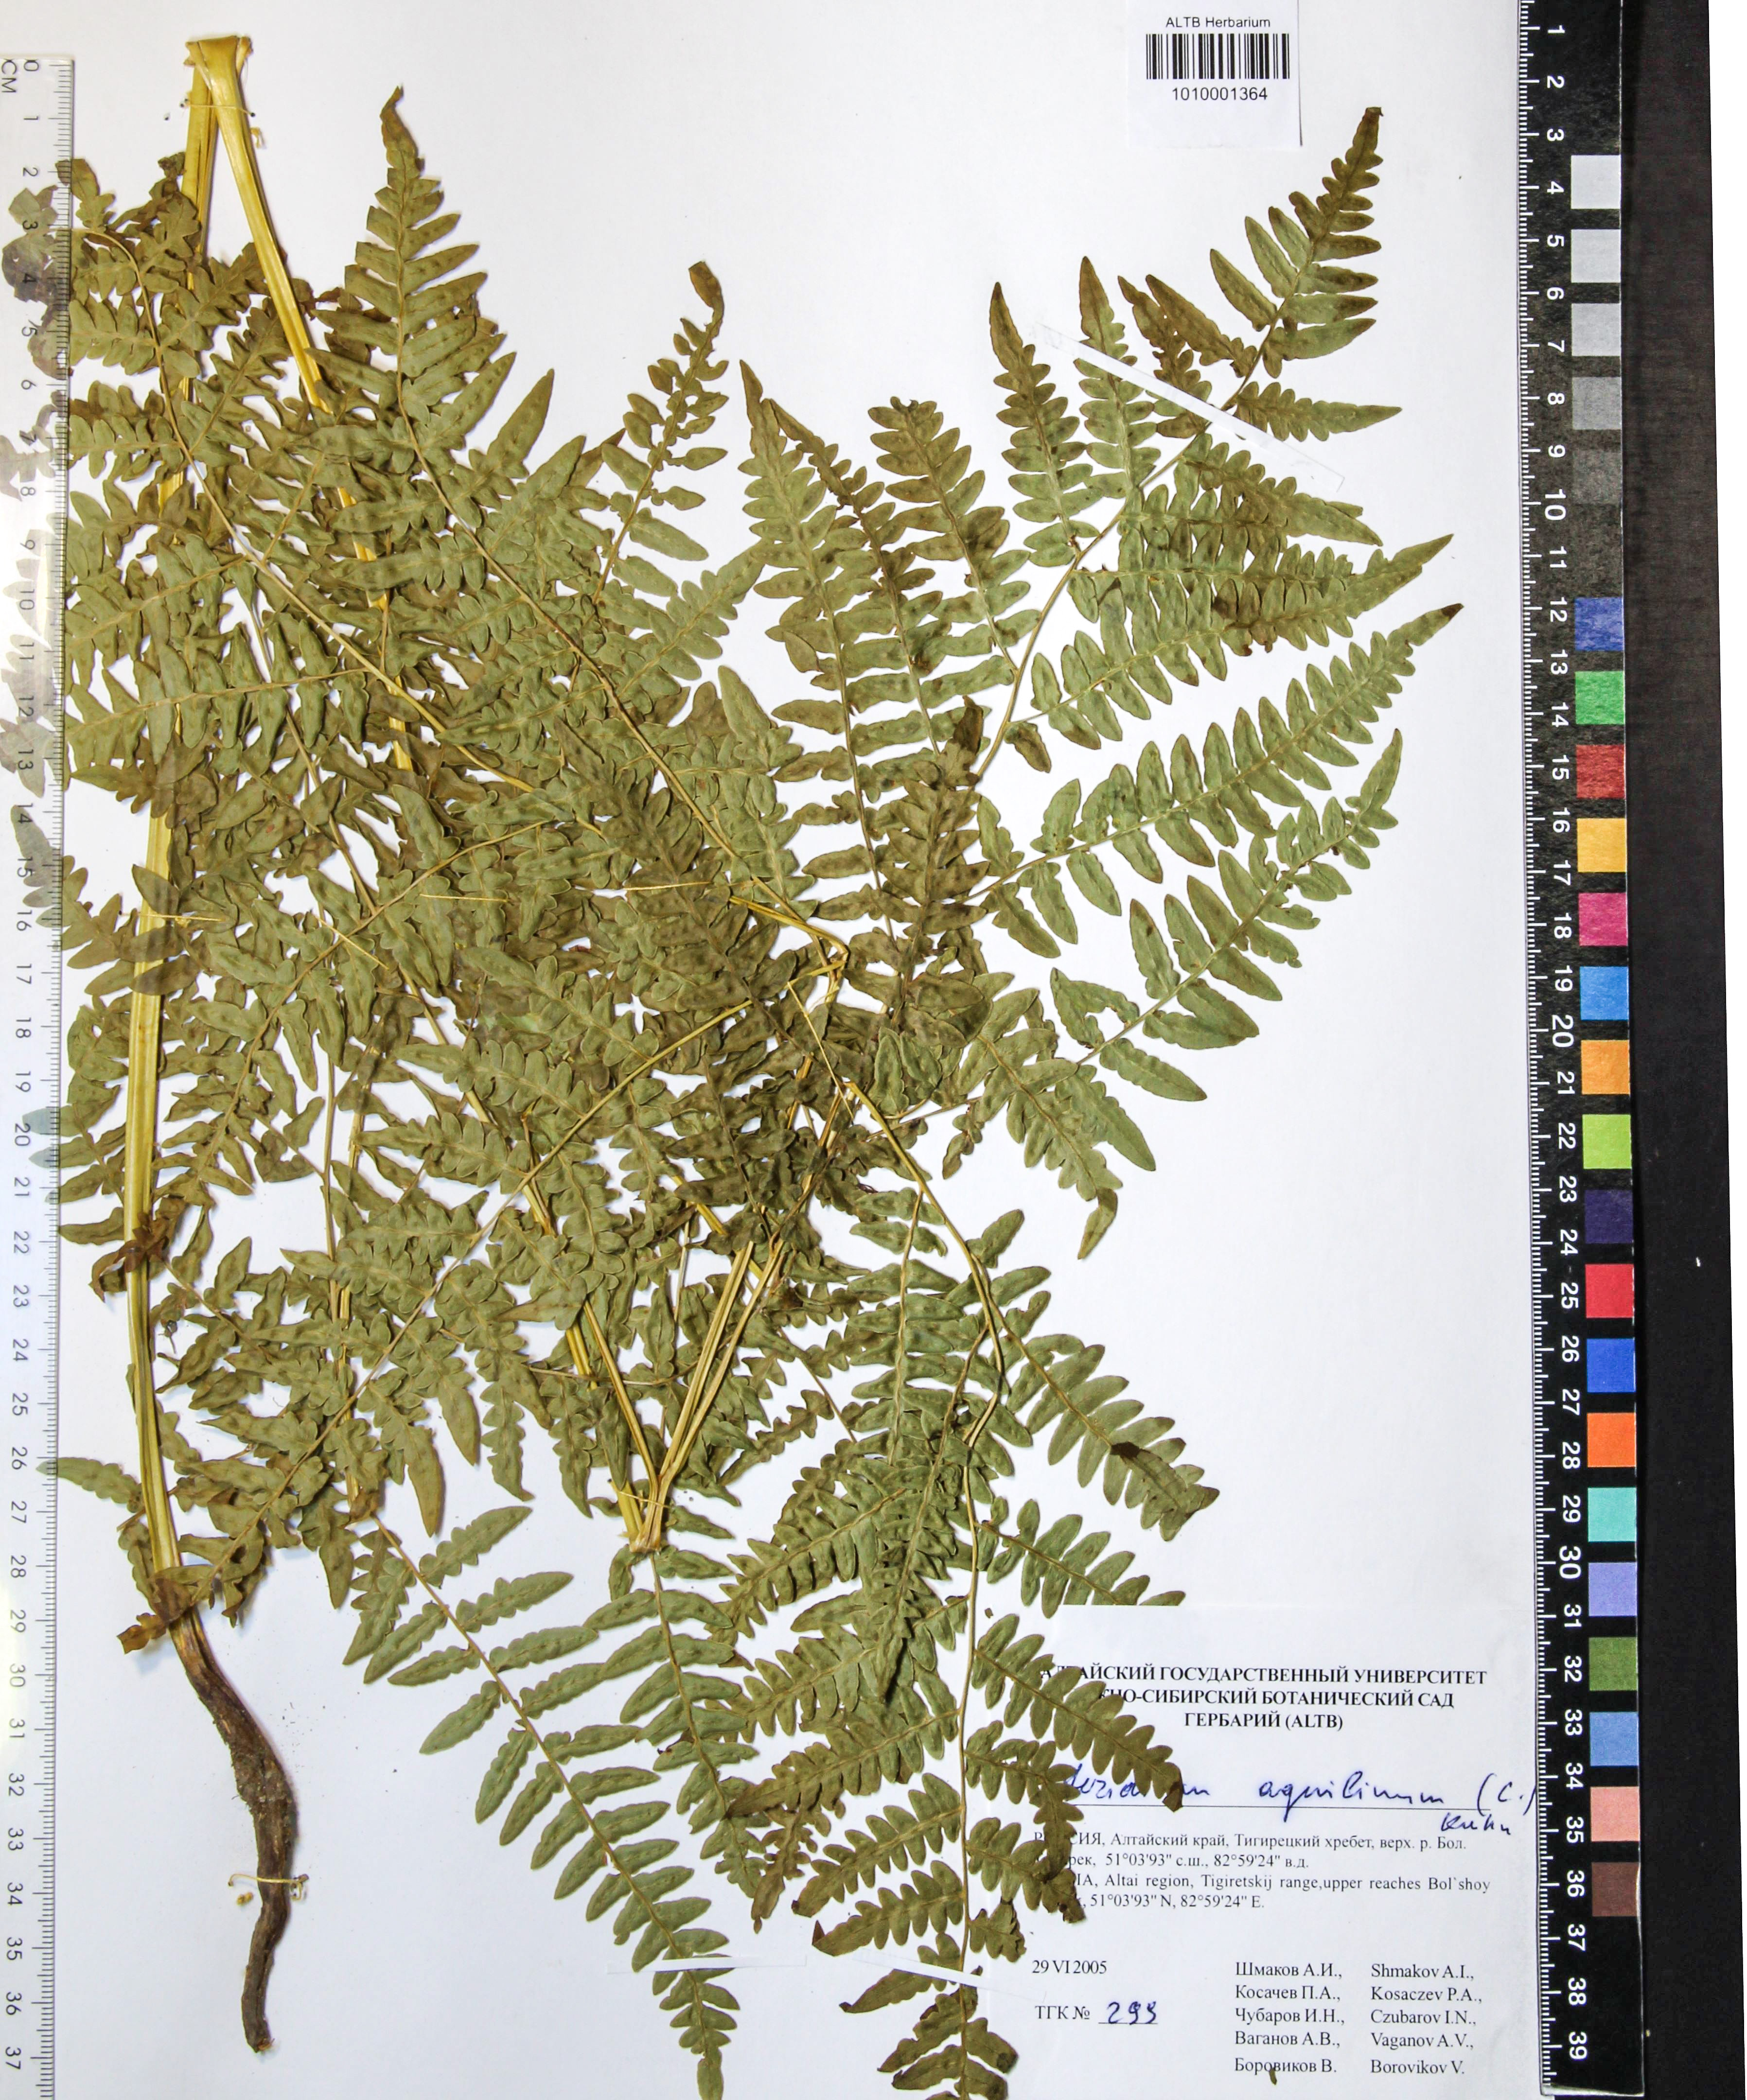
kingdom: Plantae
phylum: Tracheophyta
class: Polypodiopsida
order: Polypodiales
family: Dennstaedtiaceae
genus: Pteridium
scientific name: Pteridium aquilinum
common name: Bracken
